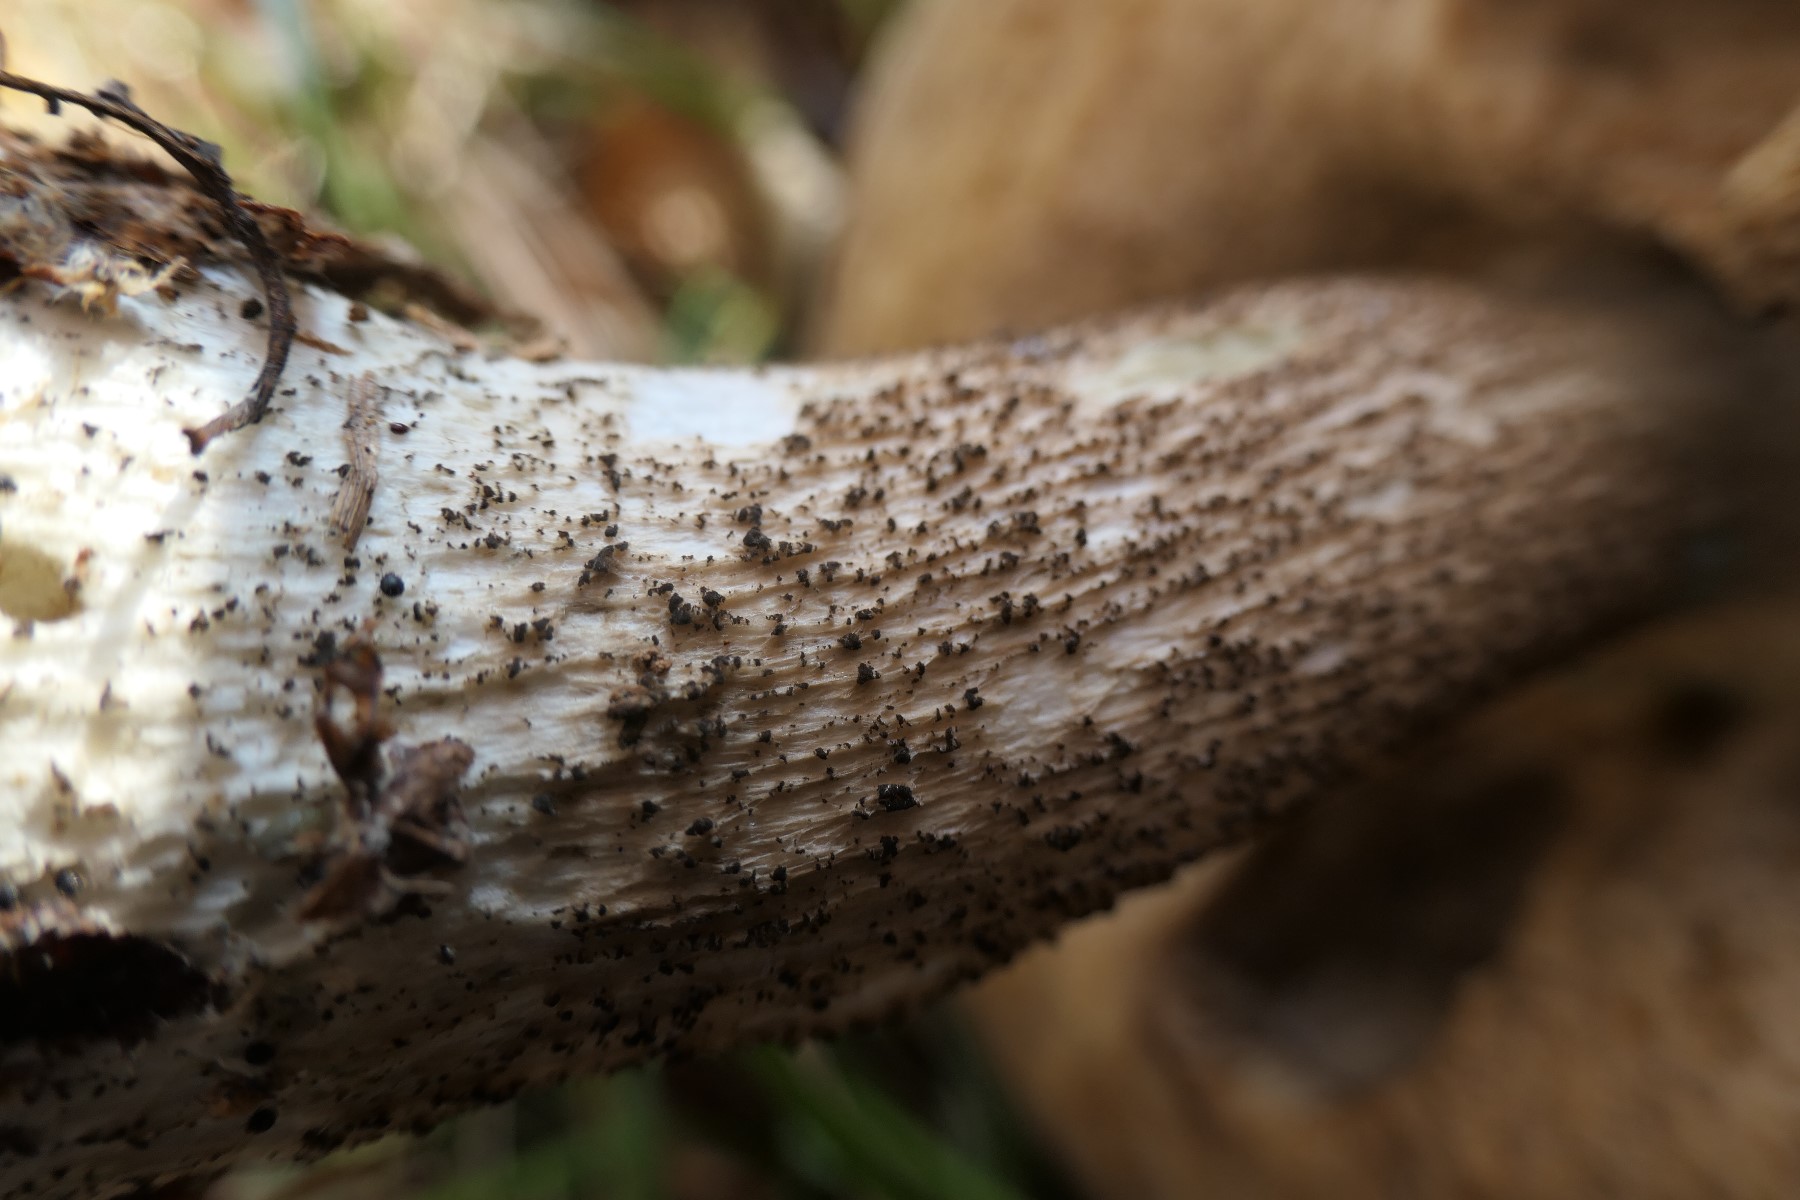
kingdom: Fungi
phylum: Basidiomycota
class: Agaricomycetes
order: Boletales
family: Boletaceae
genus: Leccinum
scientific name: Leccinum versipelle
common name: orange skælrørhat
